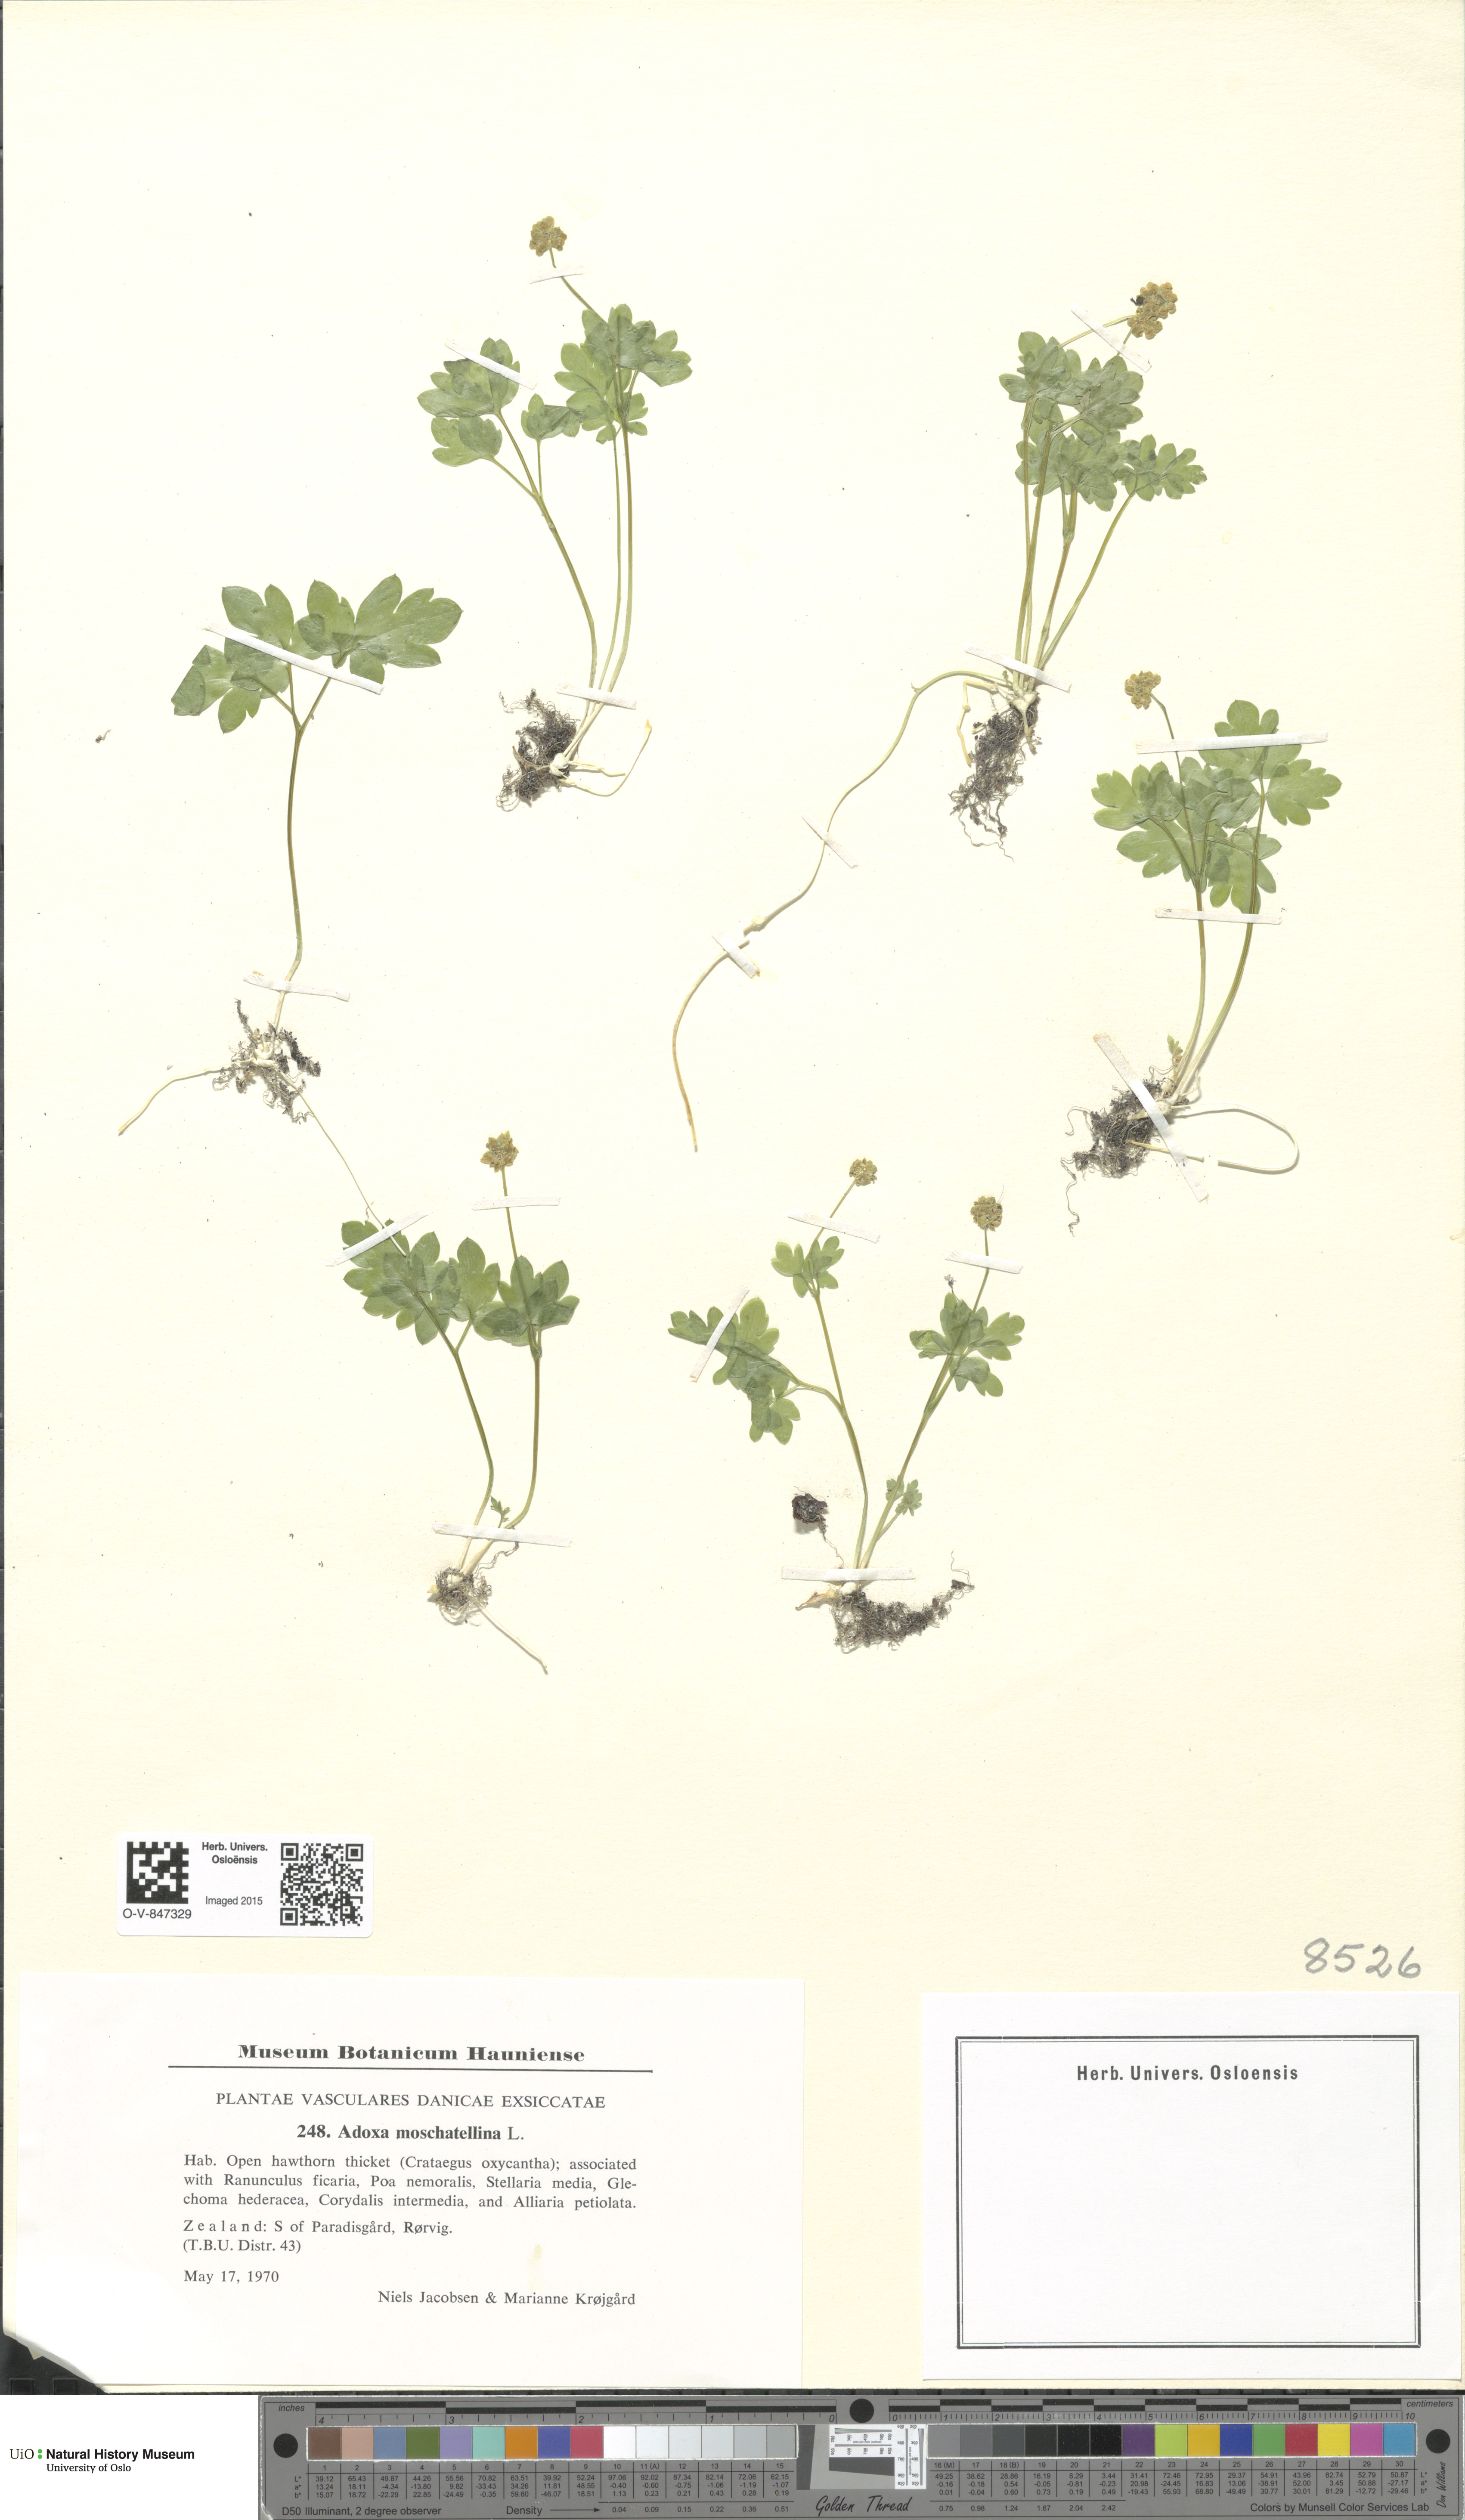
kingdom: Plantae
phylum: Tracheophyta
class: Magnoliopsida
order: Dipsacales
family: Viburnaceae
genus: Adoxa
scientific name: Adoxa moschatellina
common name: Moschatel
